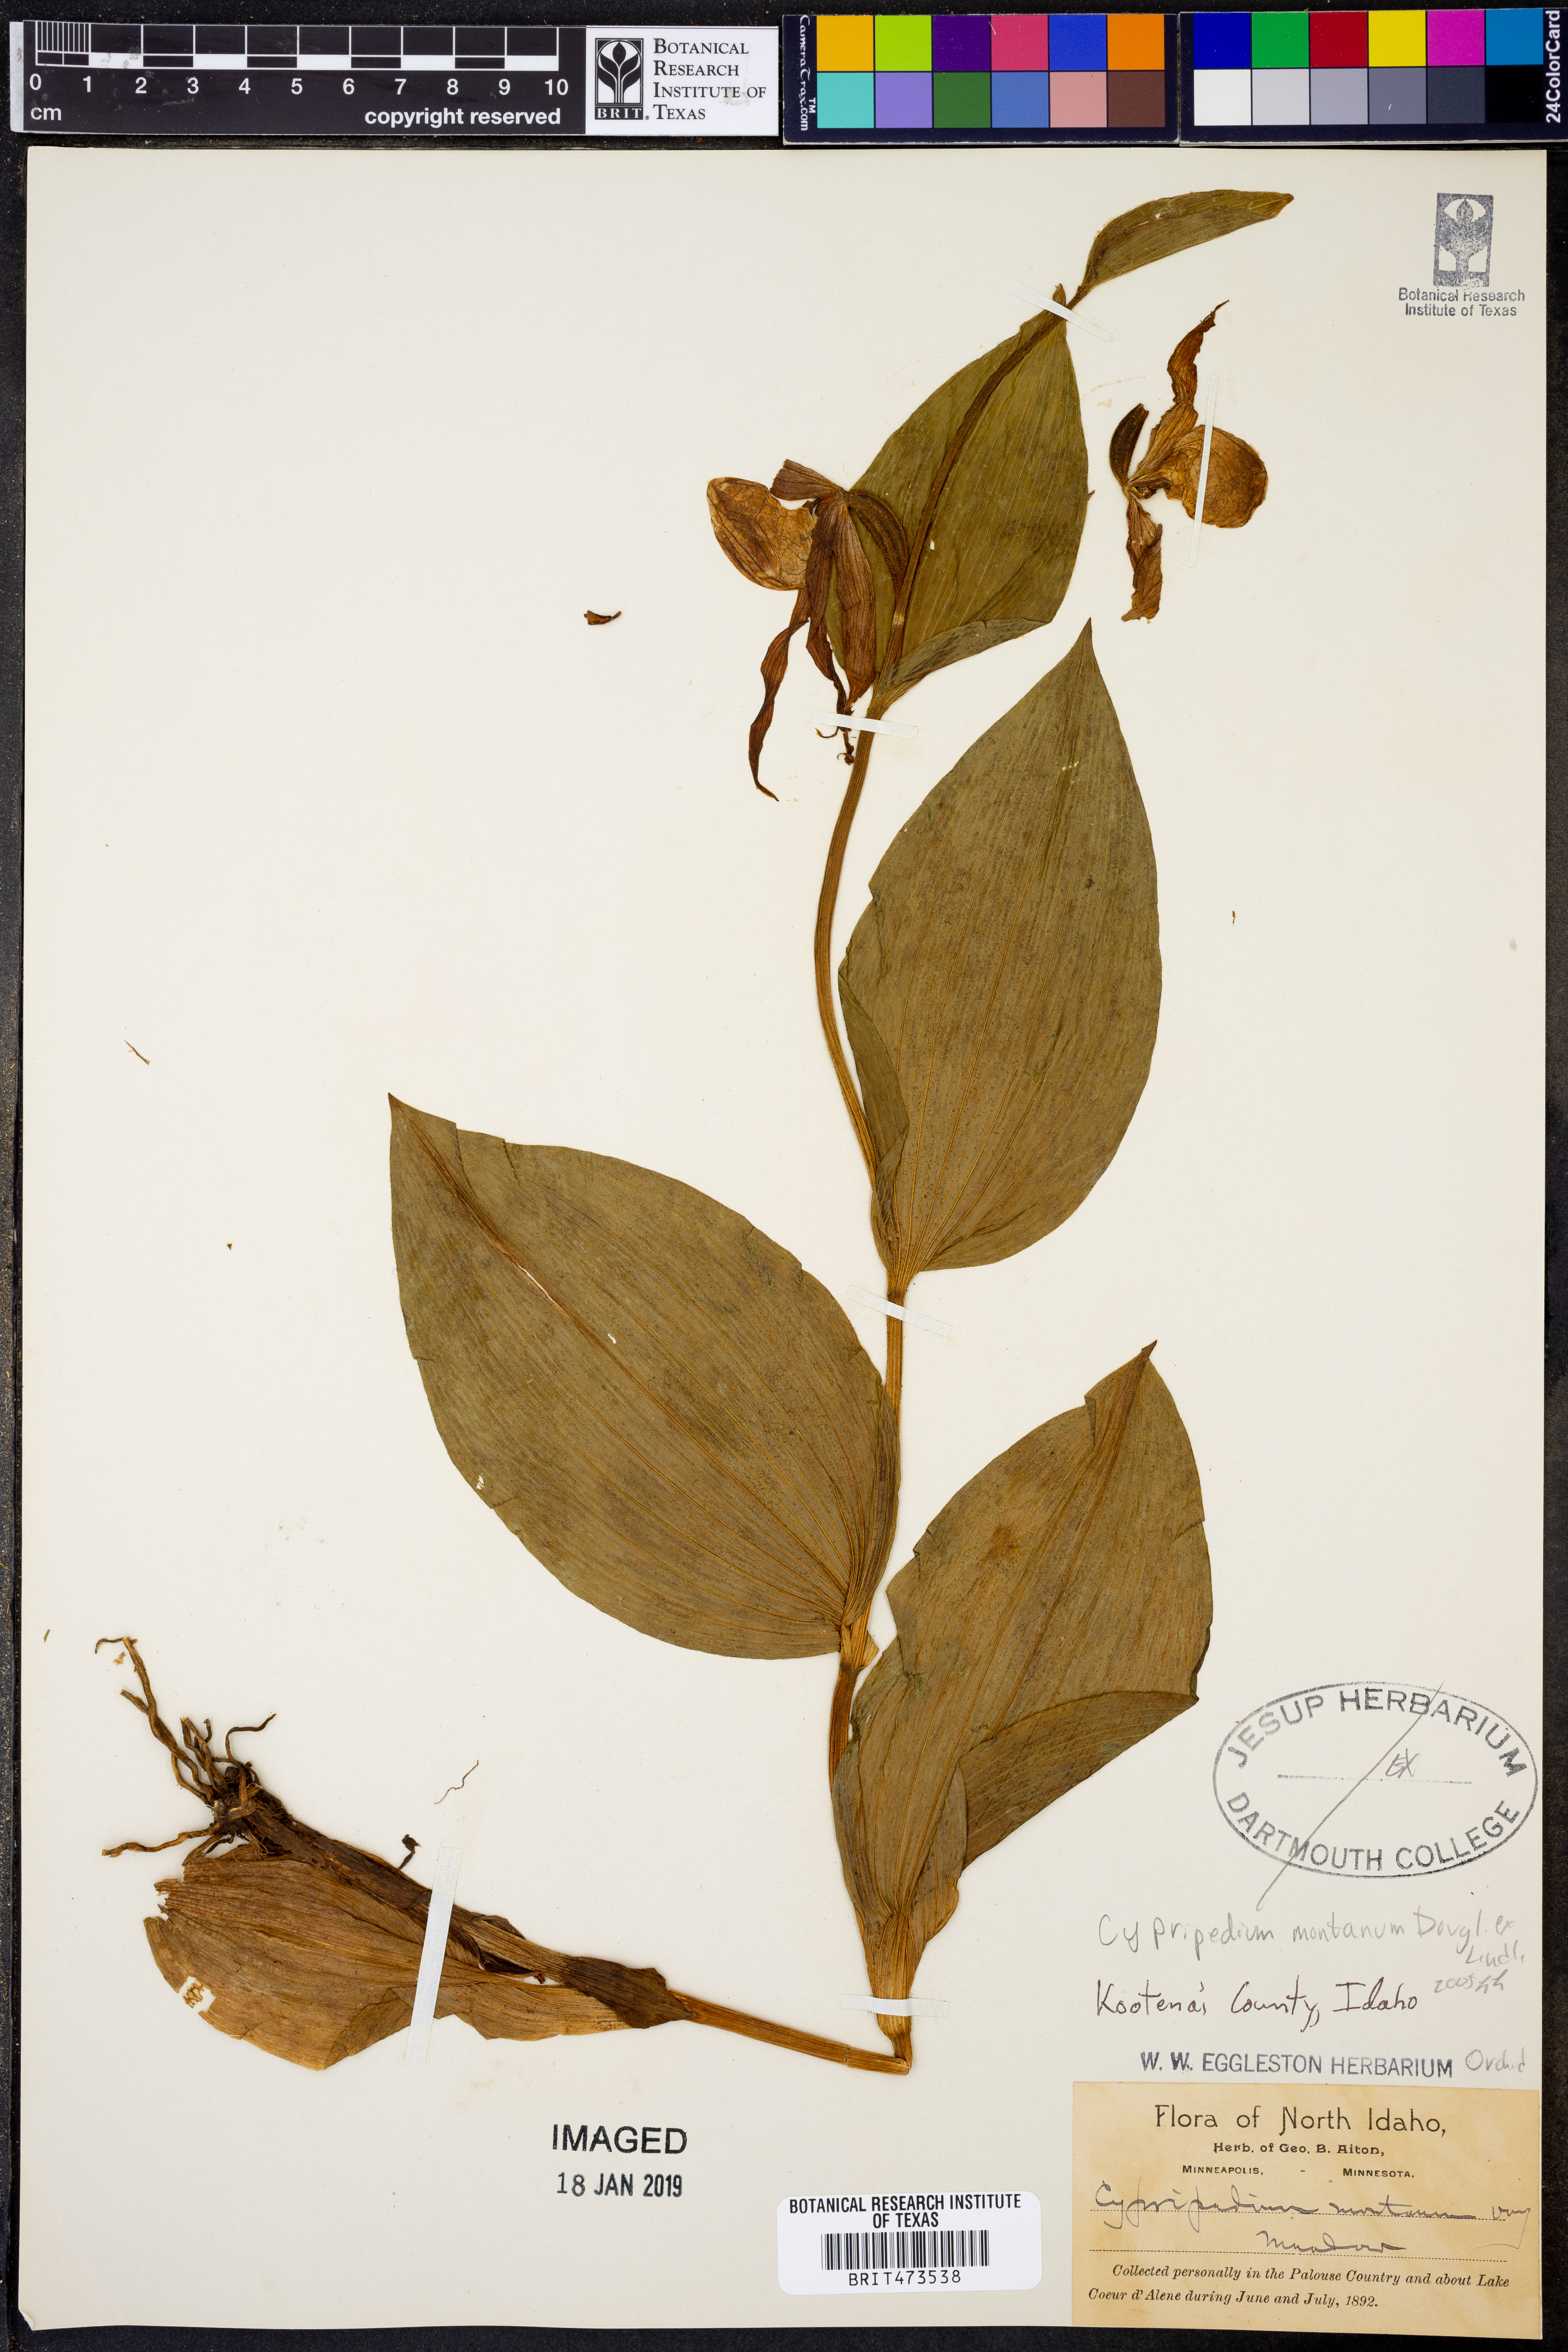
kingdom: Plantae
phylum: Tracheophyta
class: Liliopsida
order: Asparagales
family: Orchidaceae
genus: Cypripedium
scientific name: Cypripedium montanum
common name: Mountain lady's-slipper
